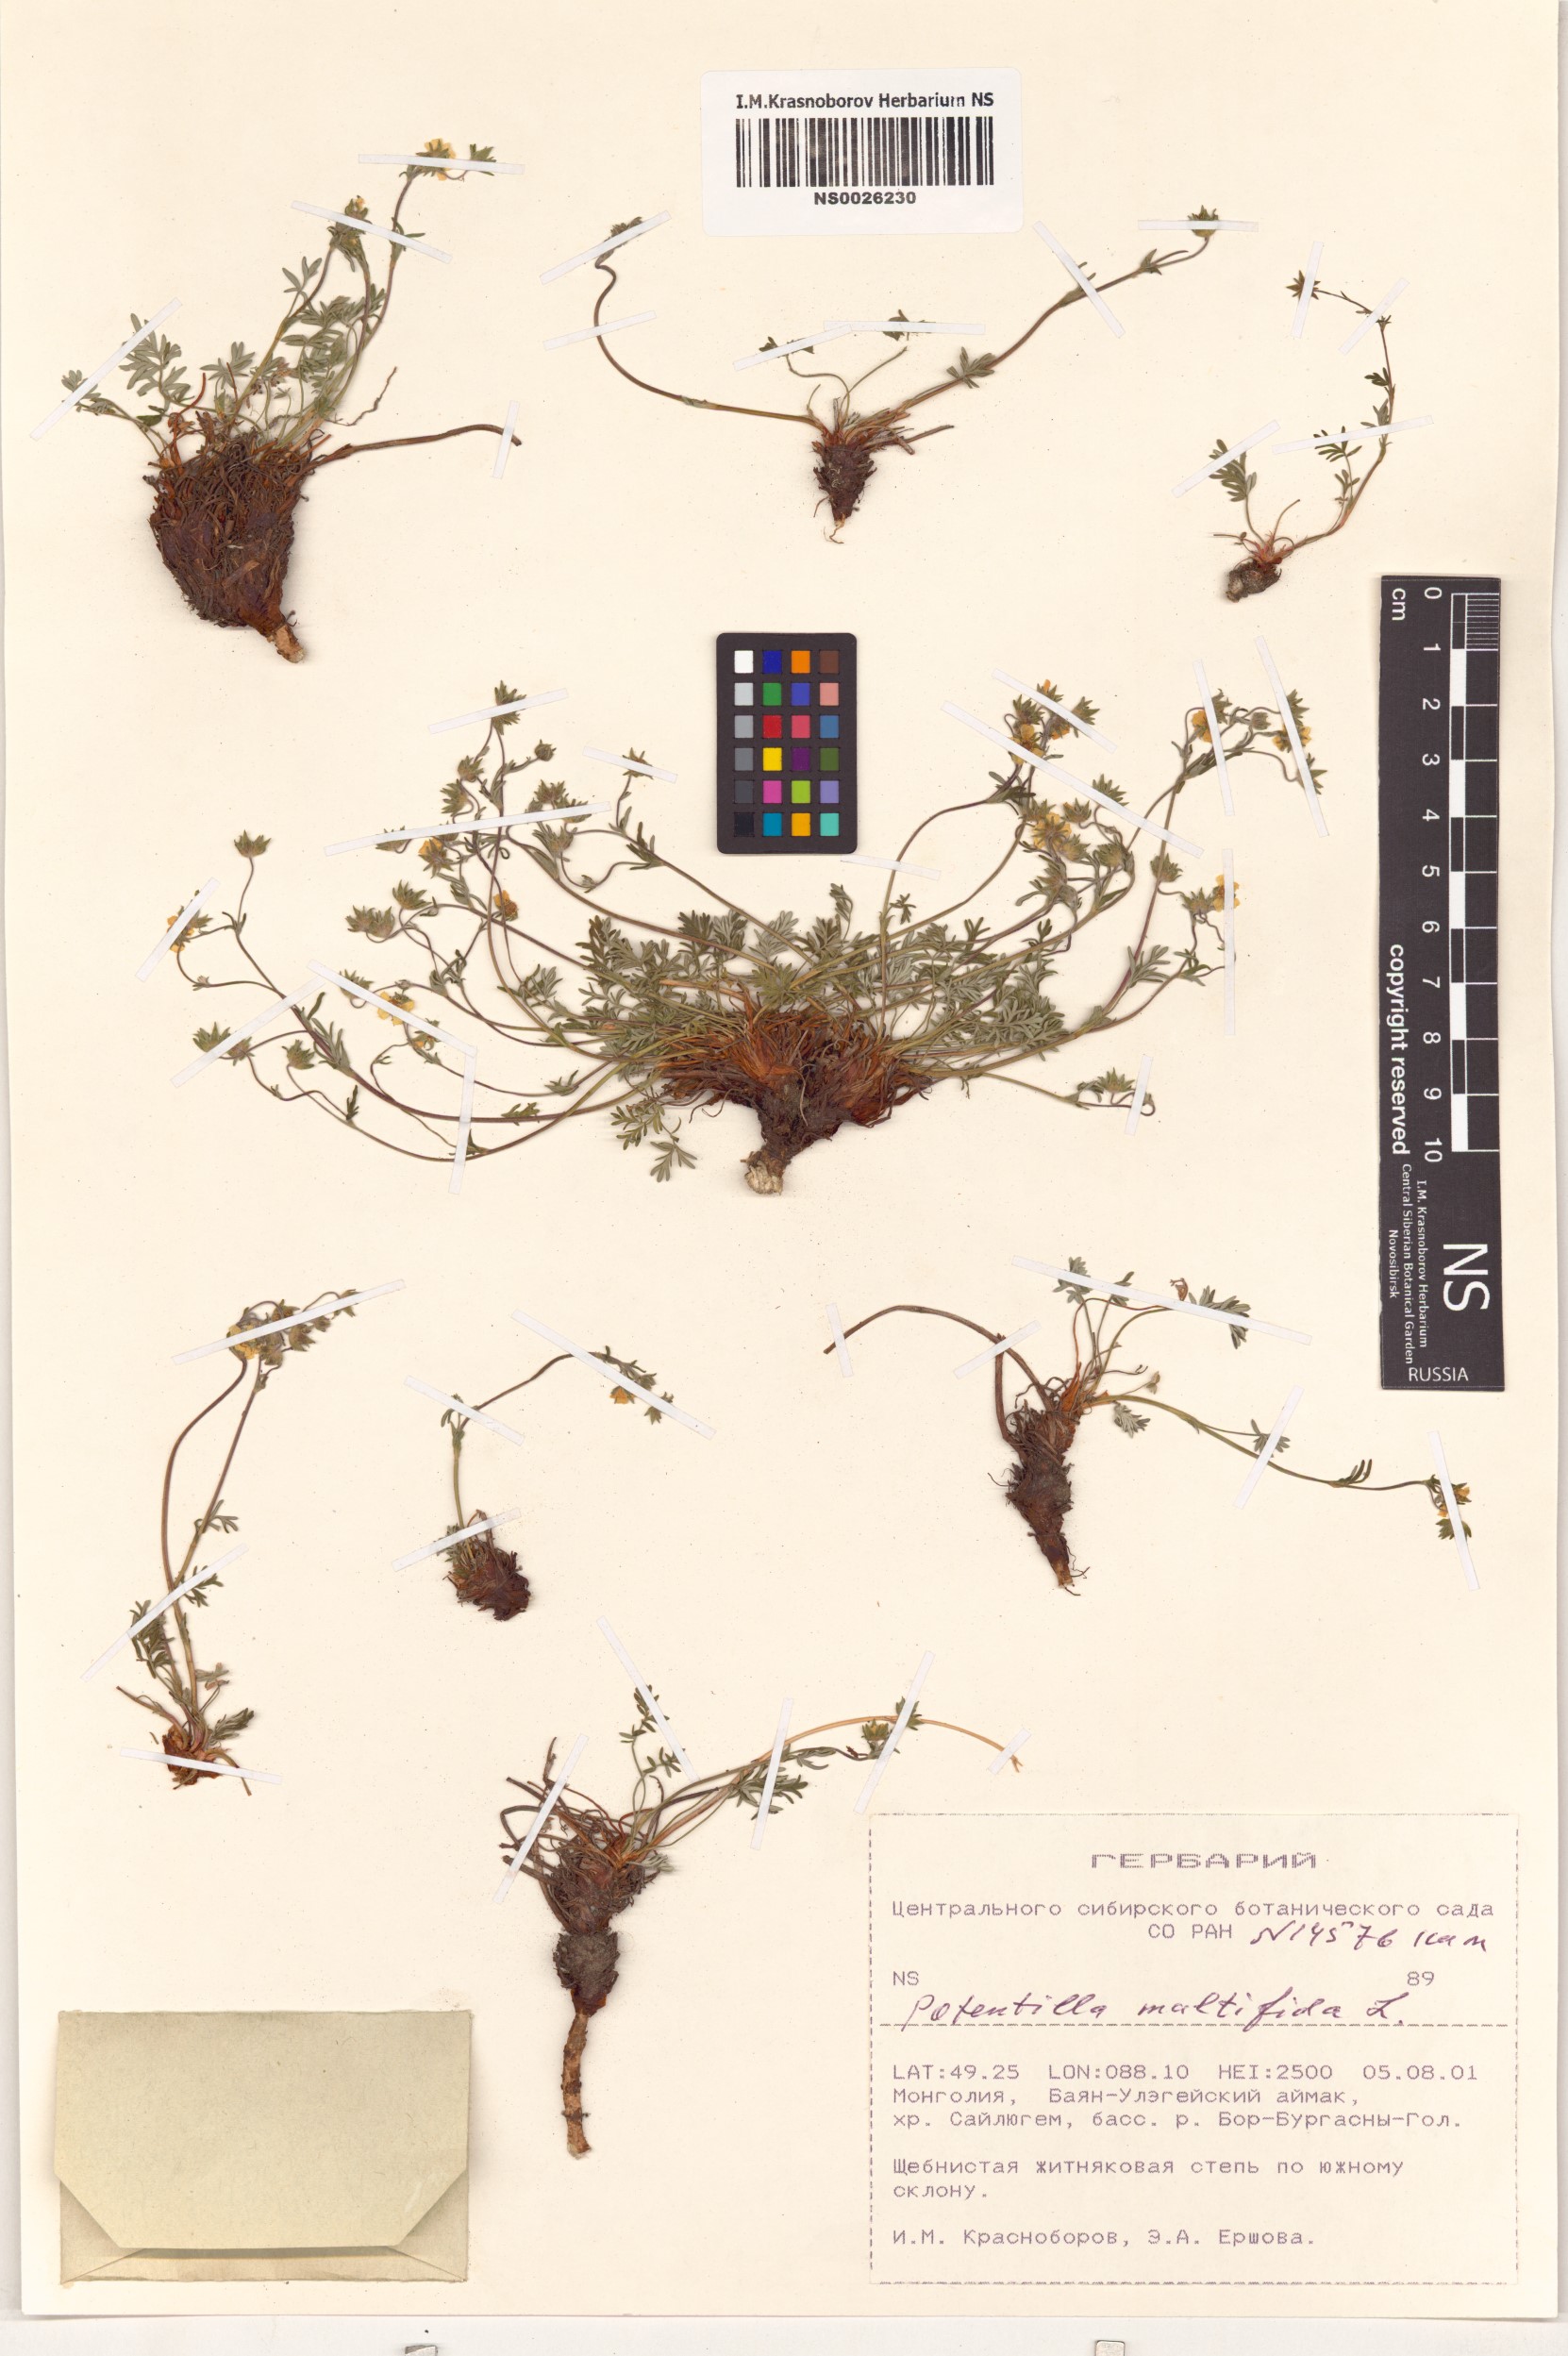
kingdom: Plantae
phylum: Tracheophyta
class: Magnoliopsida
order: Rosales
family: Rosaceae
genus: Potentilla
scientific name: Potentilla multifida
